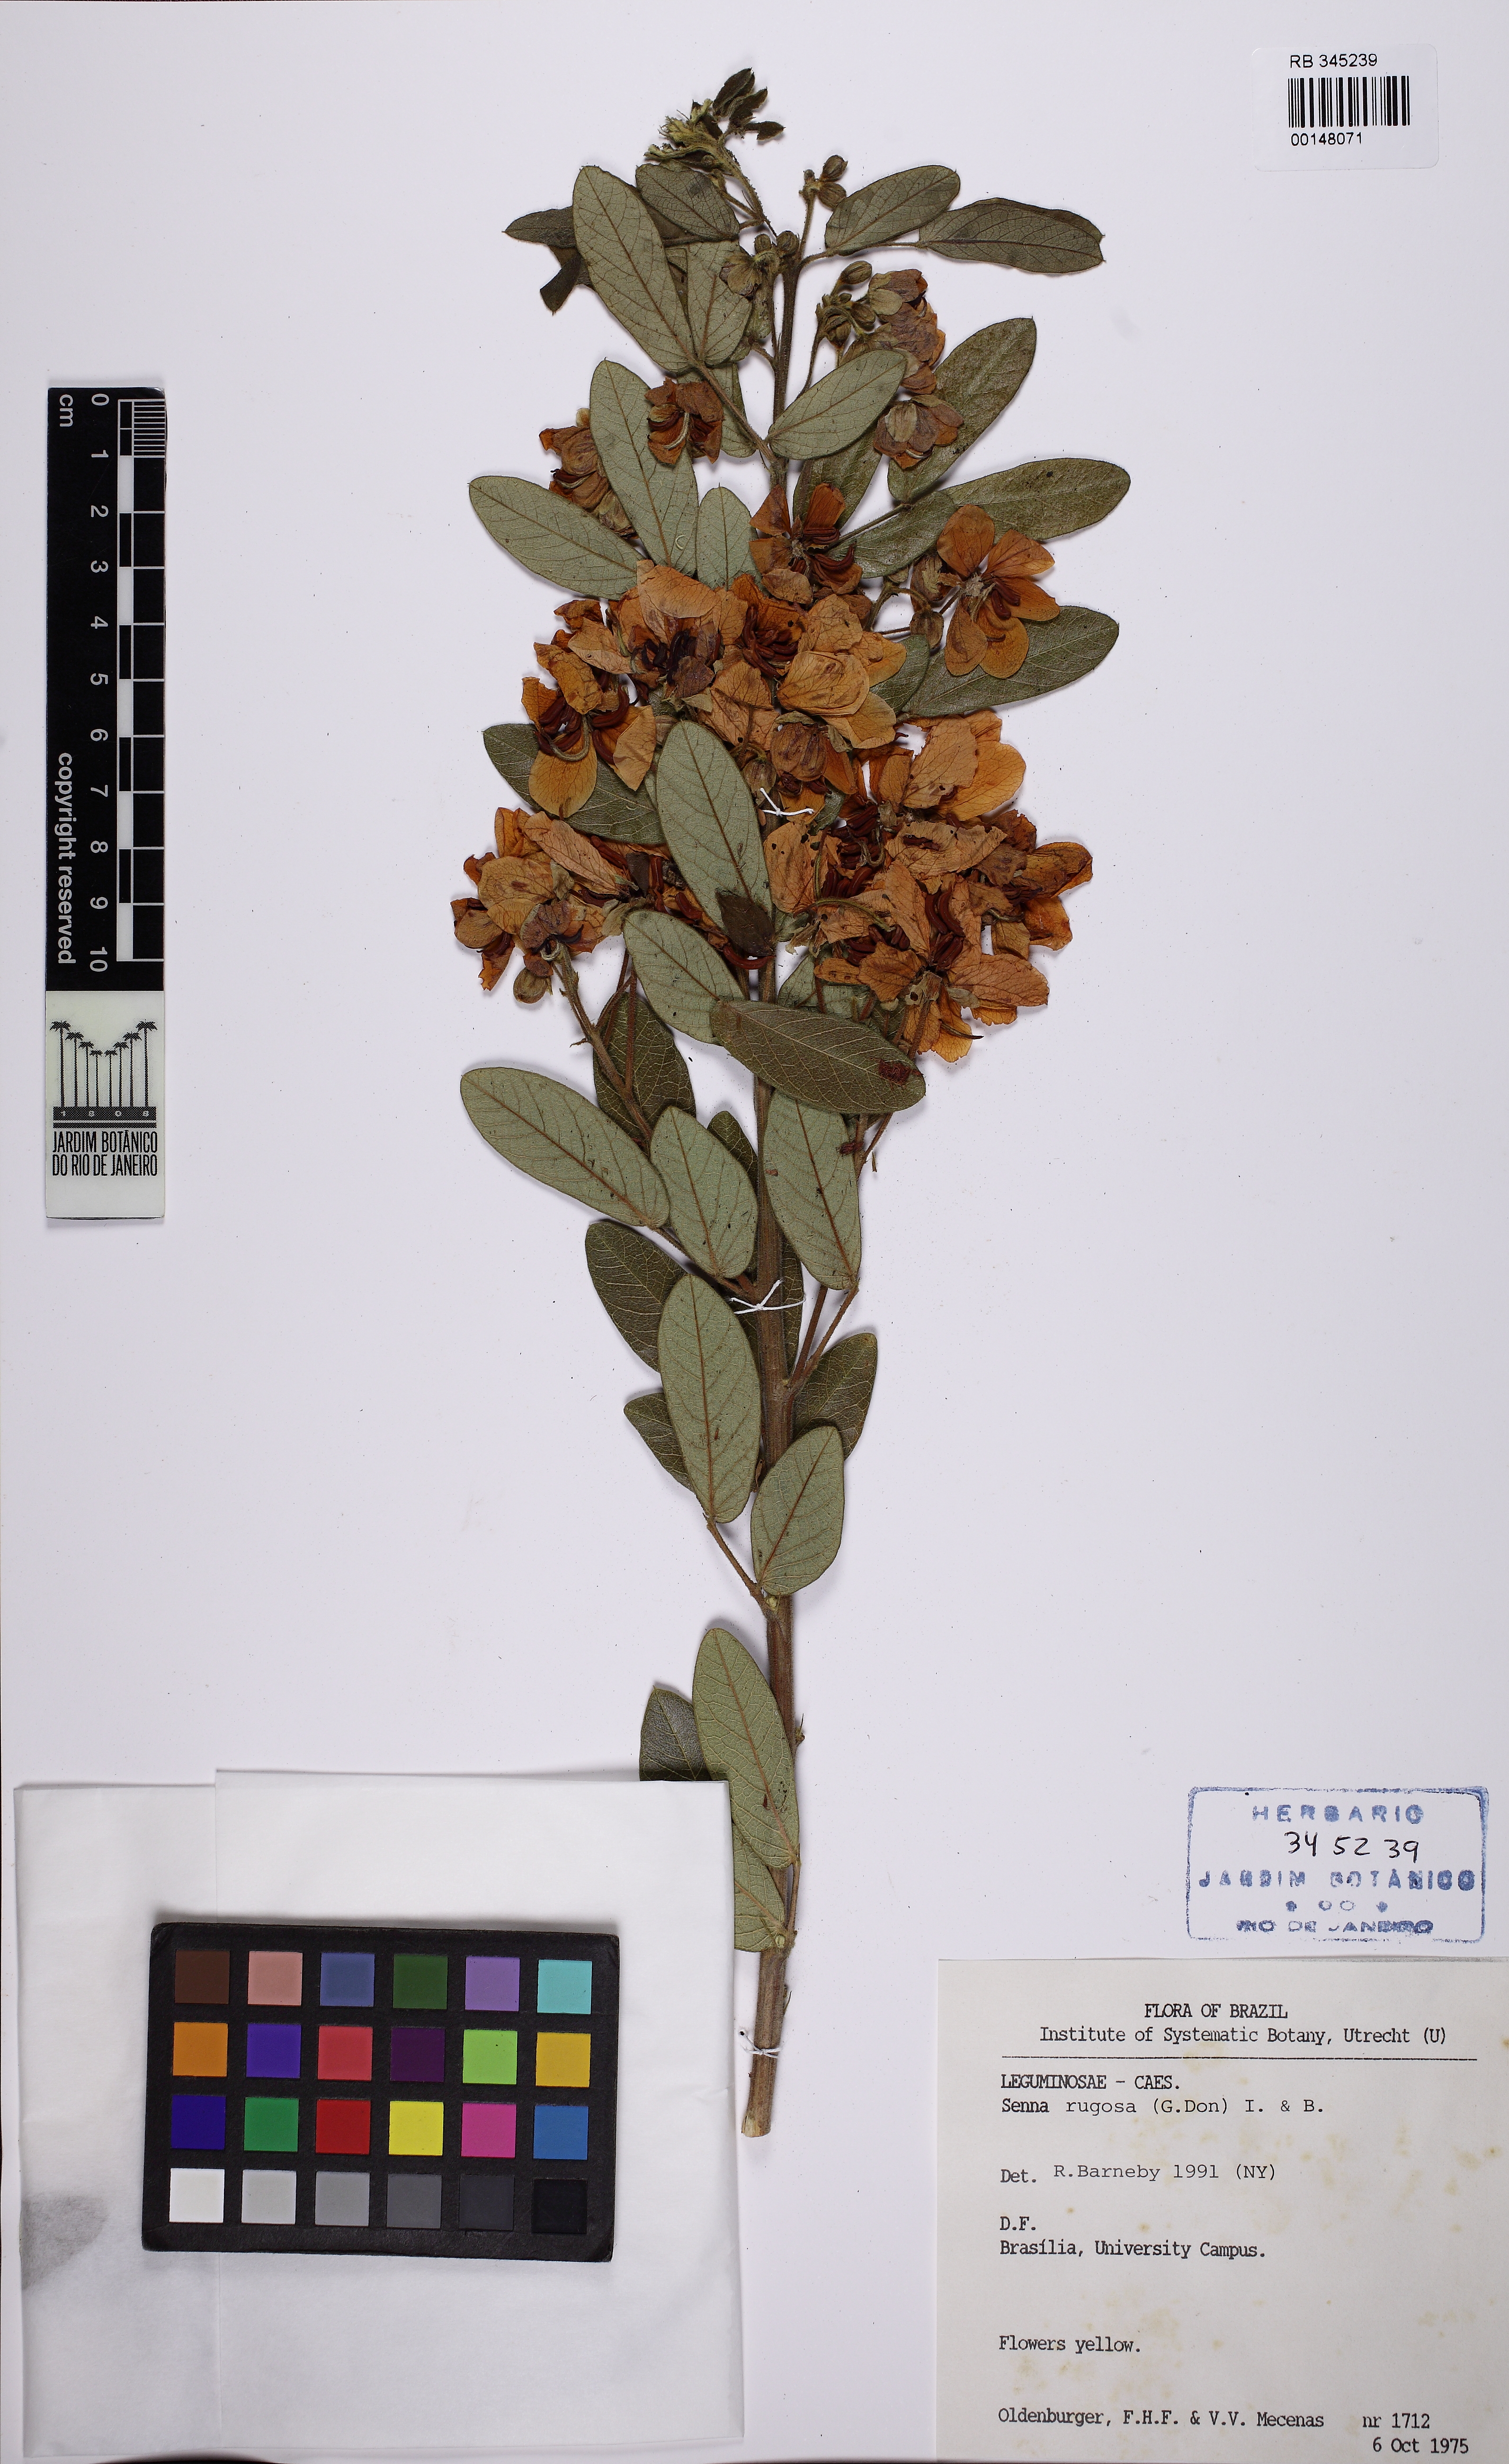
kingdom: Plantae
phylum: Tracheophyta
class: Magnoliopsida
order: Fabales
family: Fabaceae
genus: Senna
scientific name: Senna rugosa
